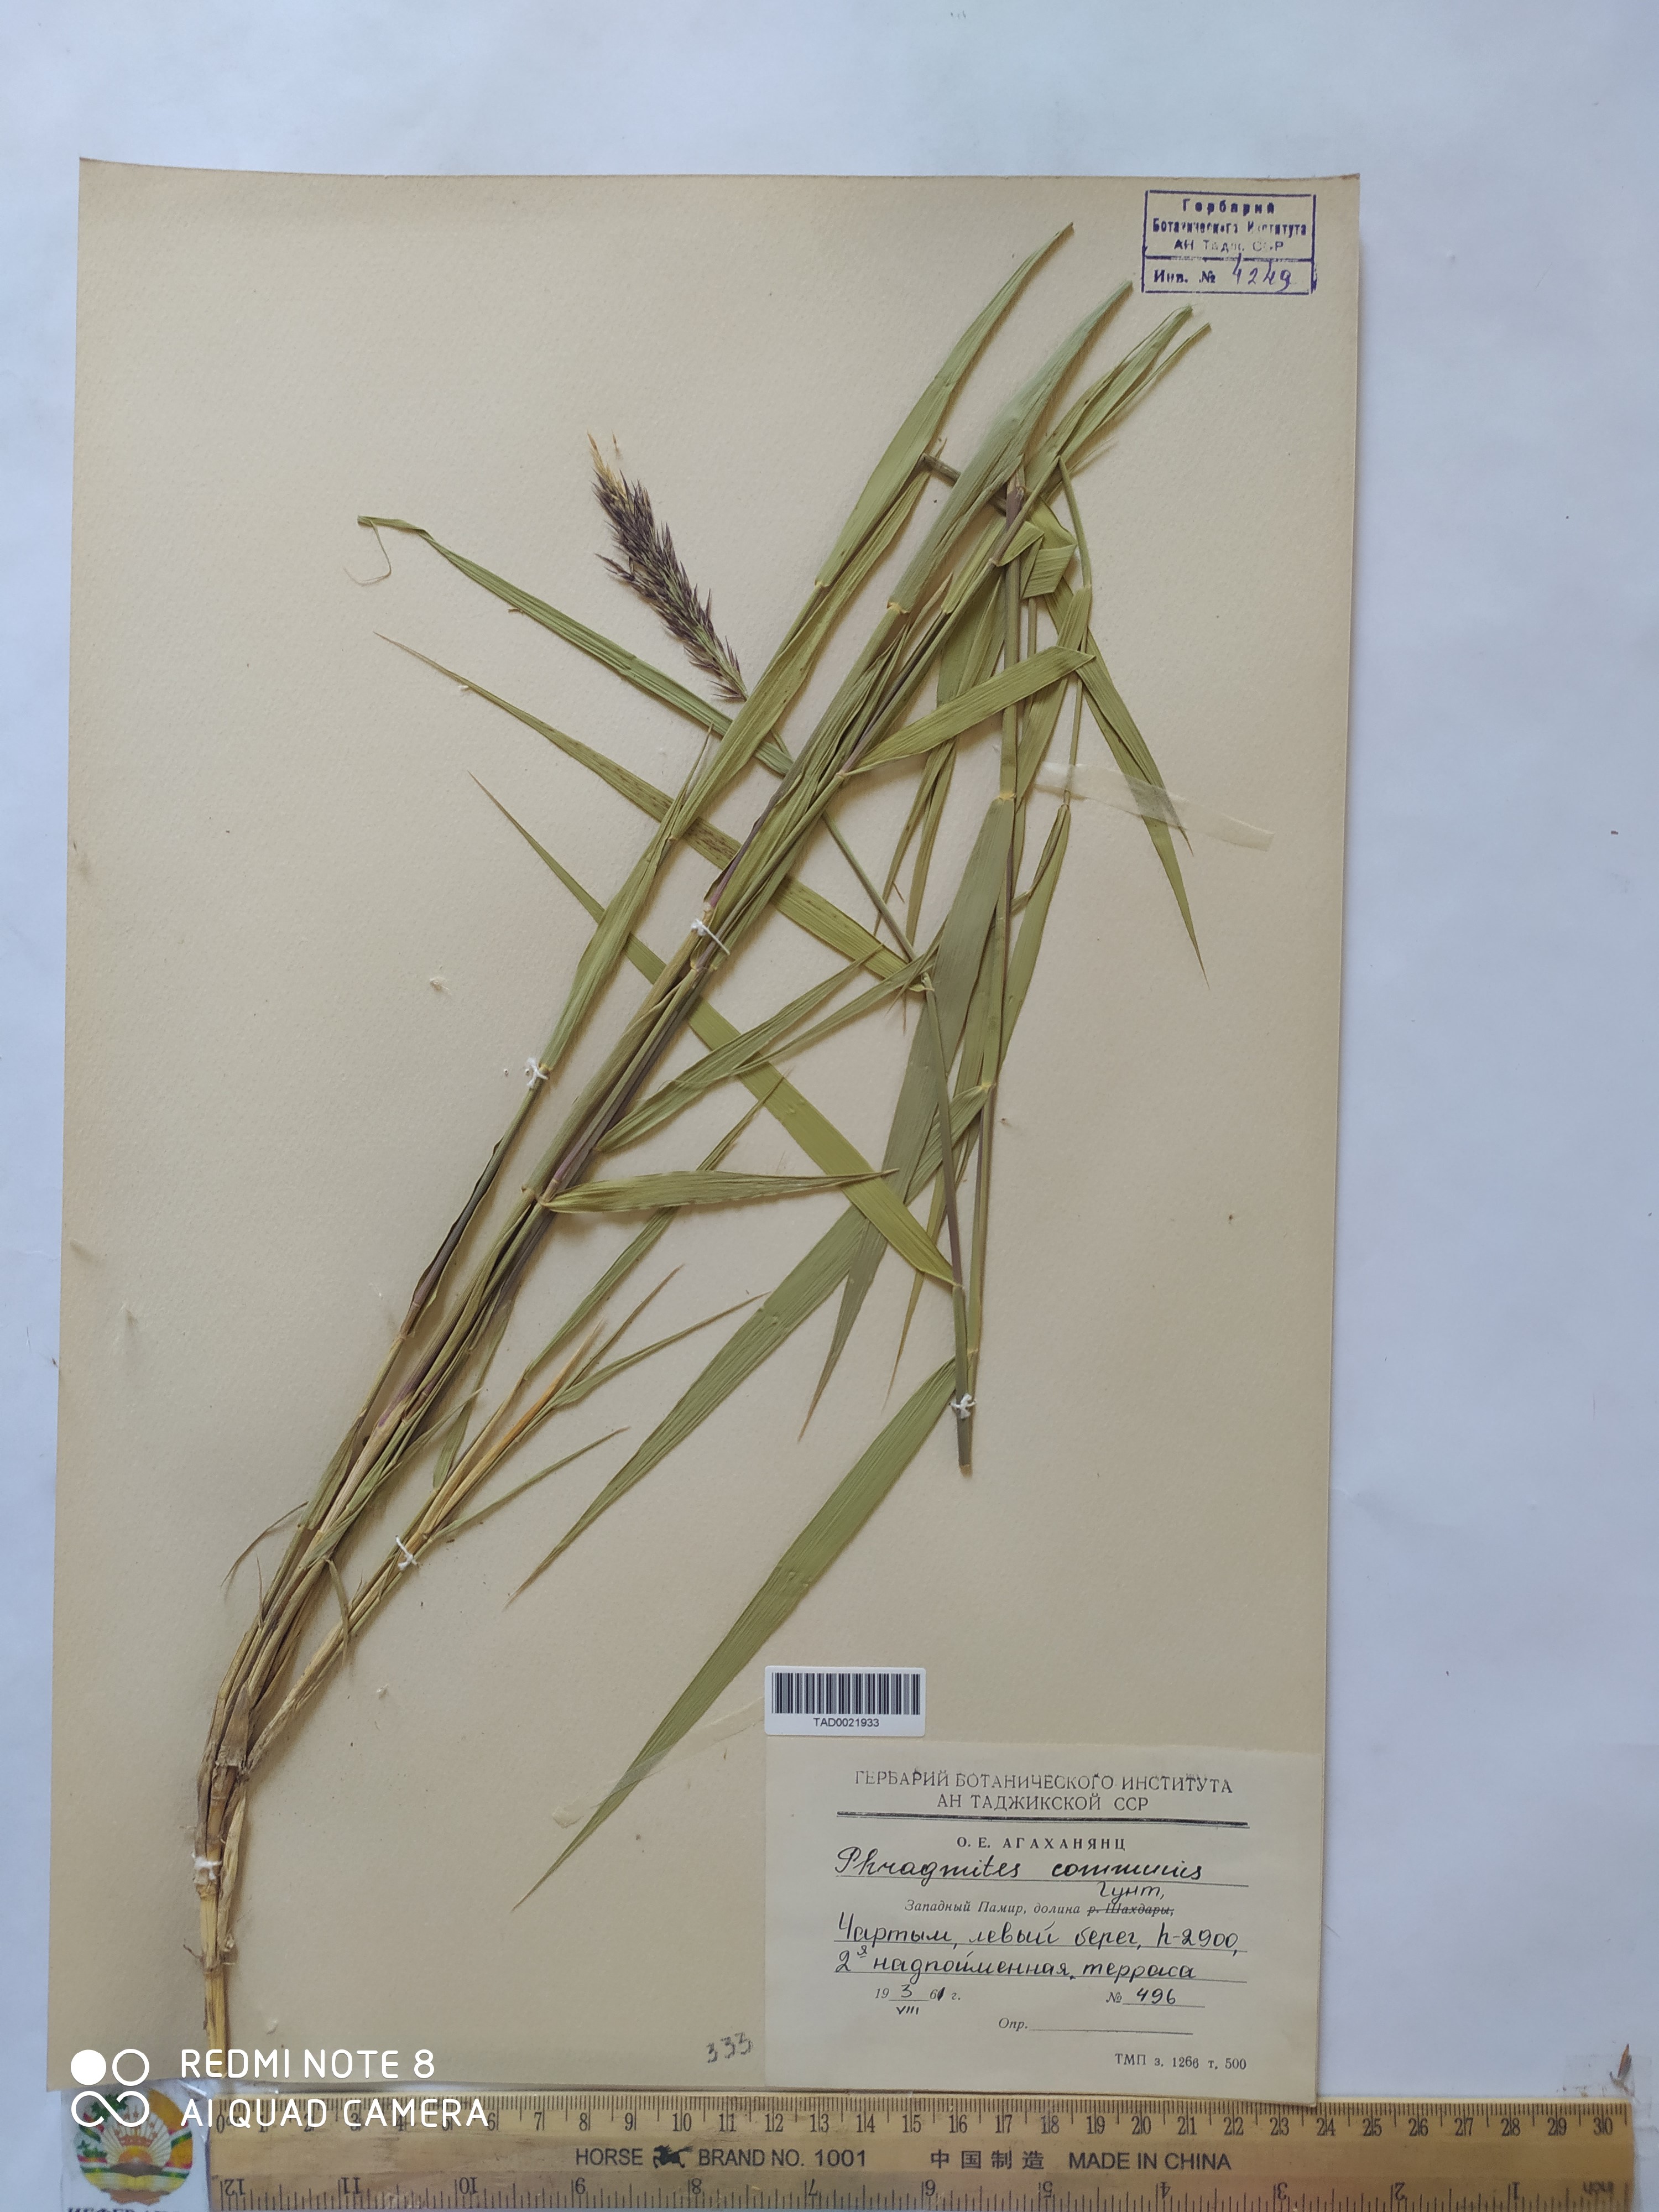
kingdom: Plantae
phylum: Tracheophyta
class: Liliopsida
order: Poales
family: Poaceae
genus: Phragmites
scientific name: Phragmites australis
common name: Common reed
